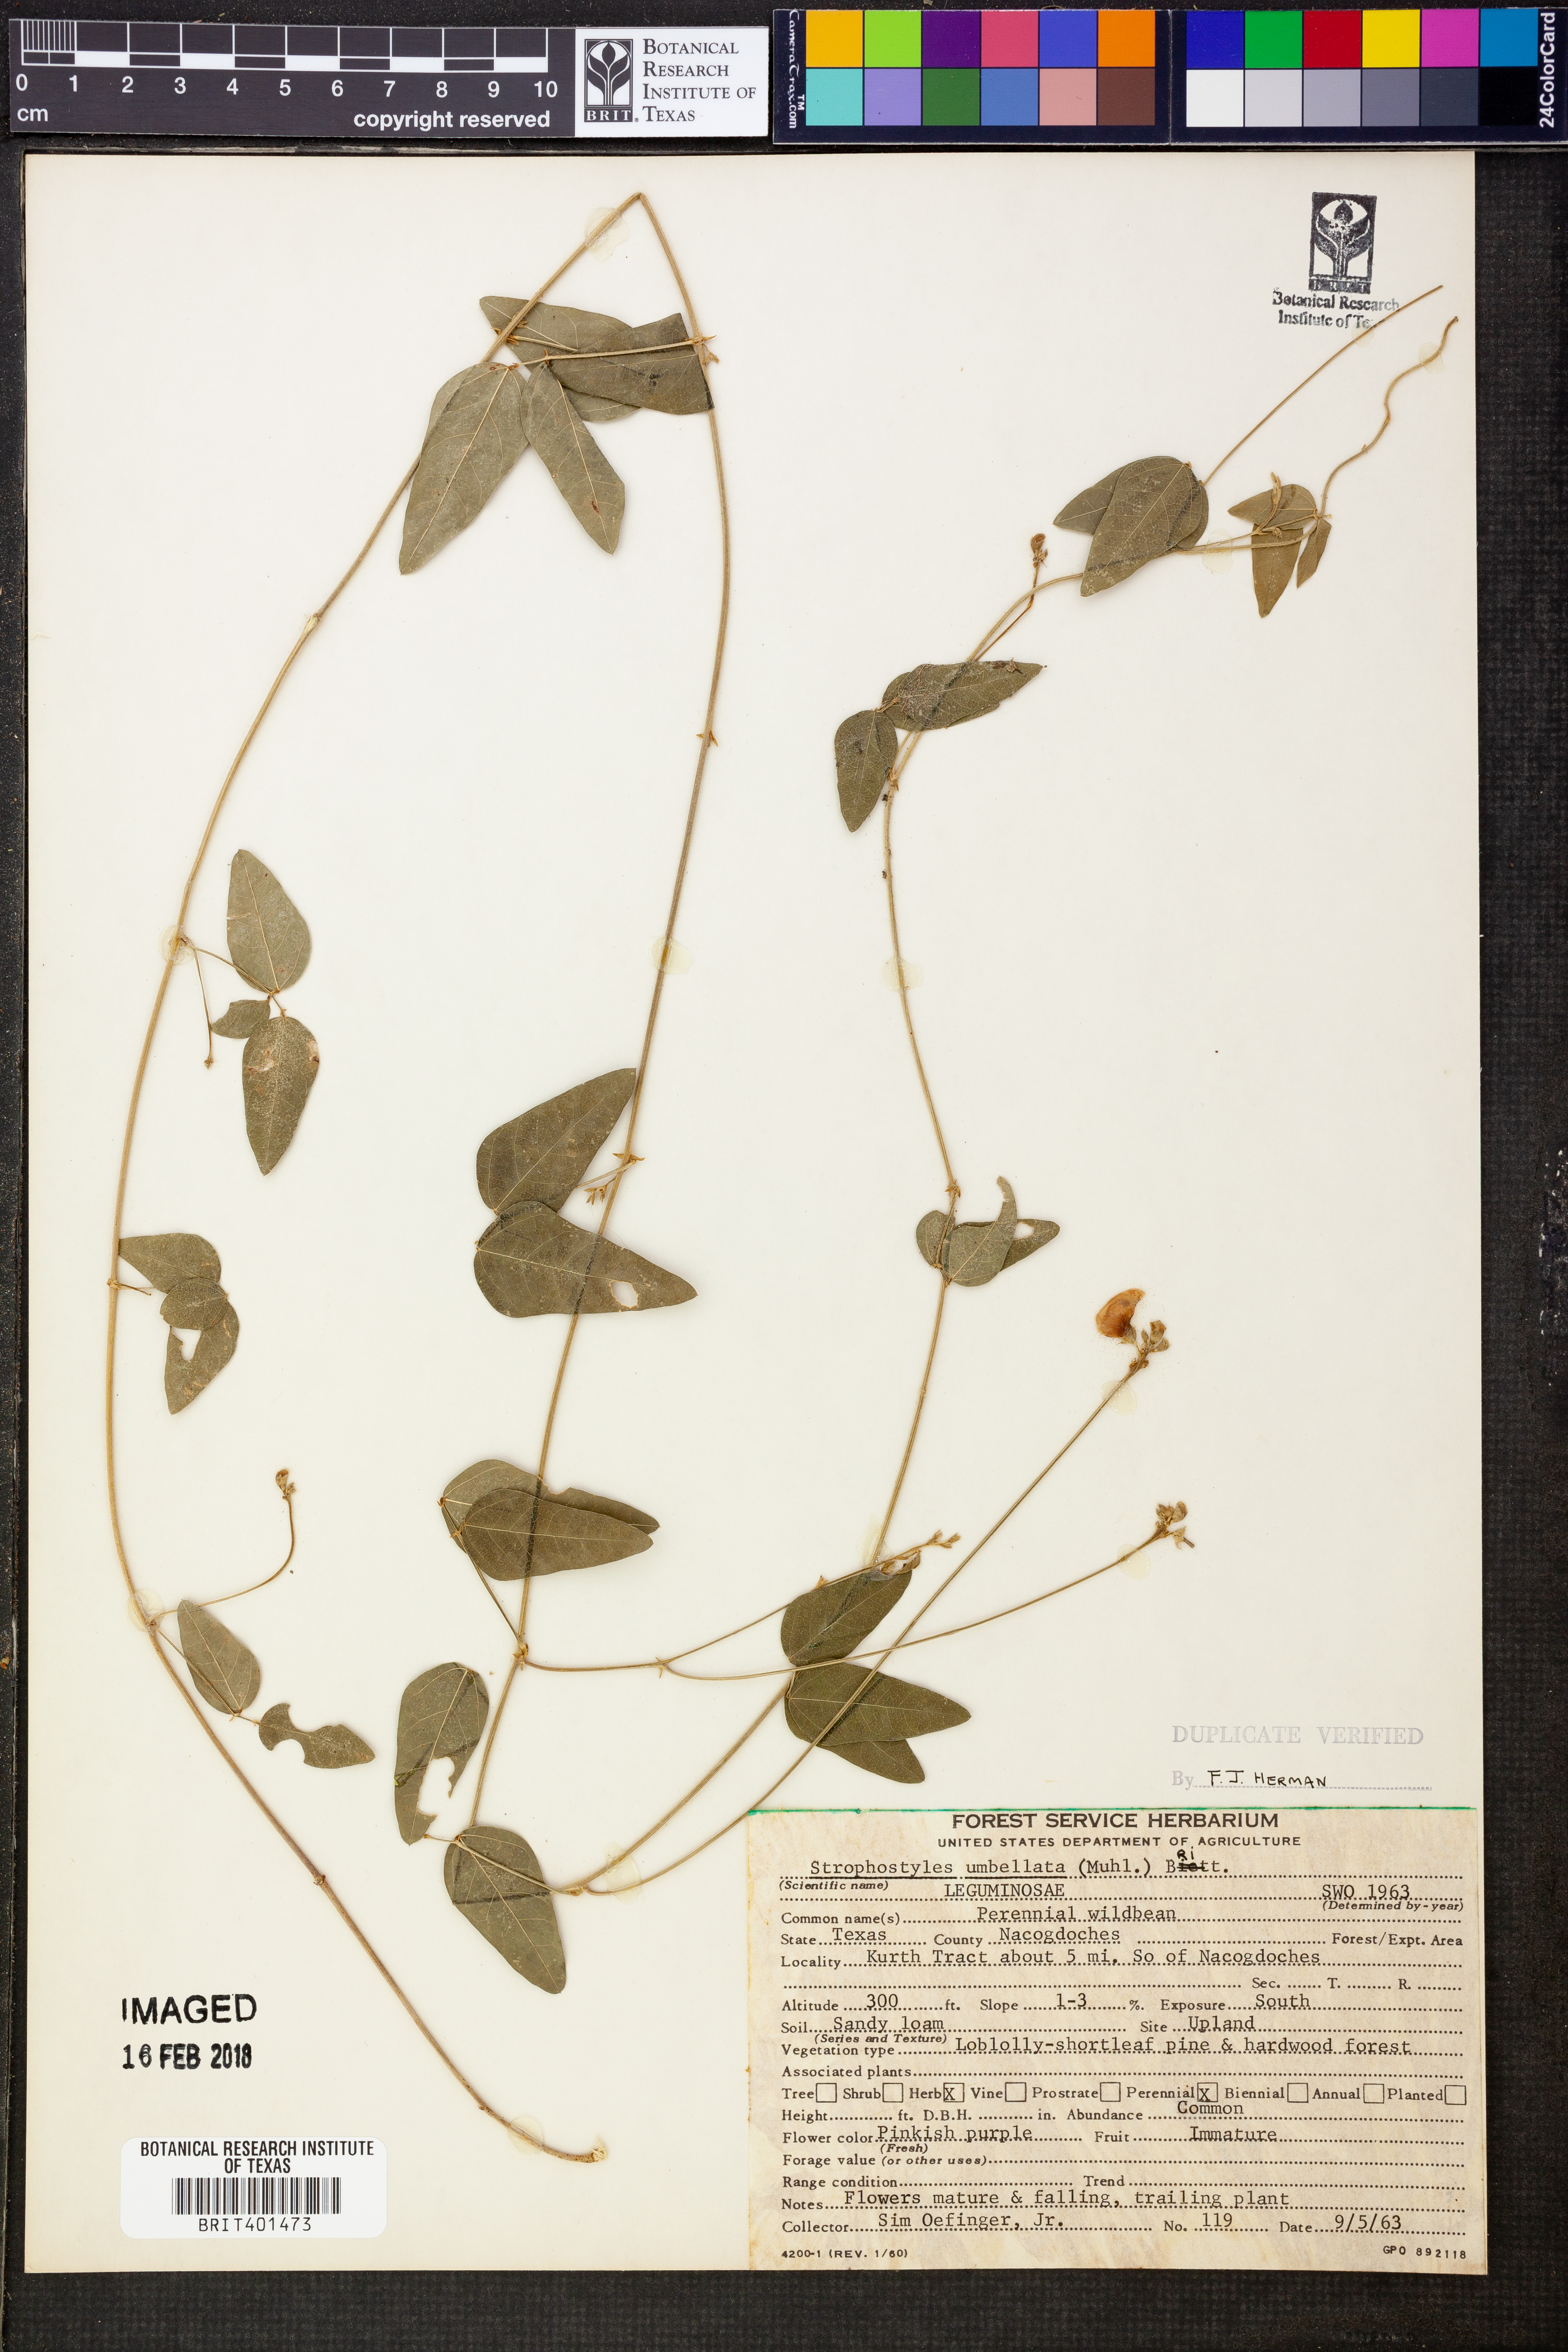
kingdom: Plantae
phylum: Tracheophyta
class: Magnoliopsida
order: Fabales
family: Fabaceae
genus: Strophostyles
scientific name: Strophostyles umbellata
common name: Perennial wild bean
